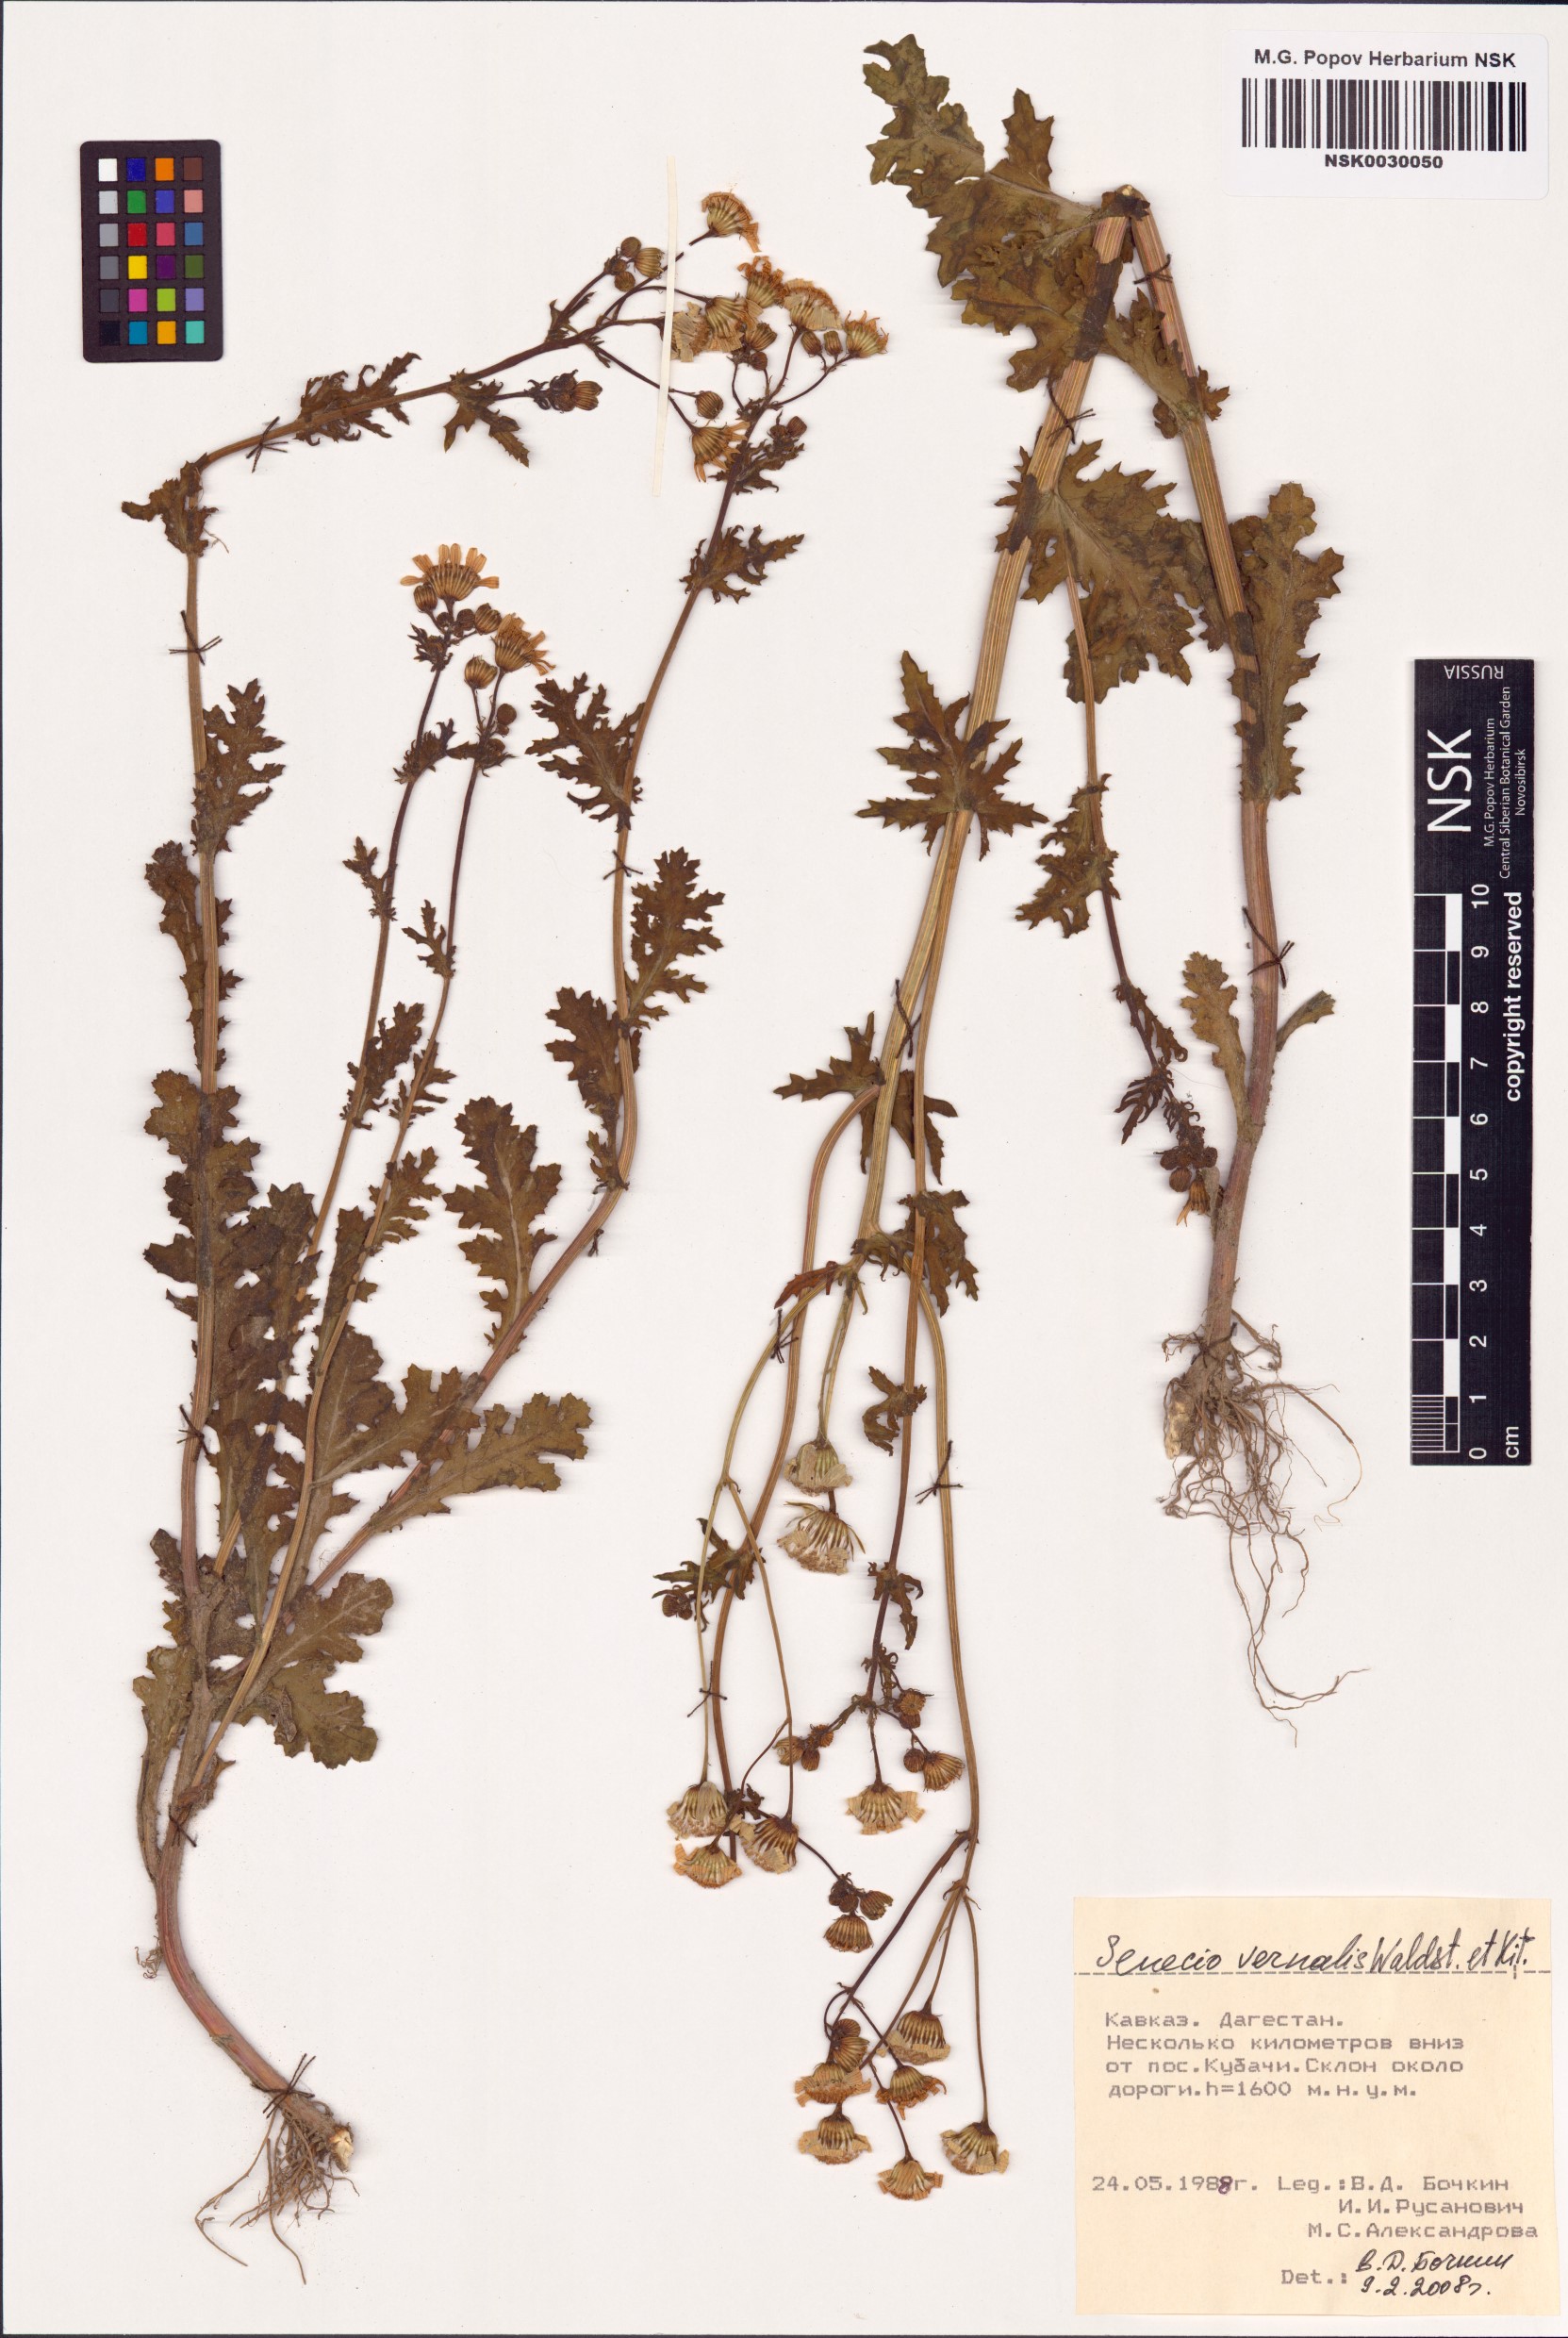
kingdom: Plantae
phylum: Tracheophyta
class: Magnoliopsida
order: Asterales
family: Asteraceae
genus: Senecio
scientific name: Senecio vernalis
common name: Eastern groundsel
